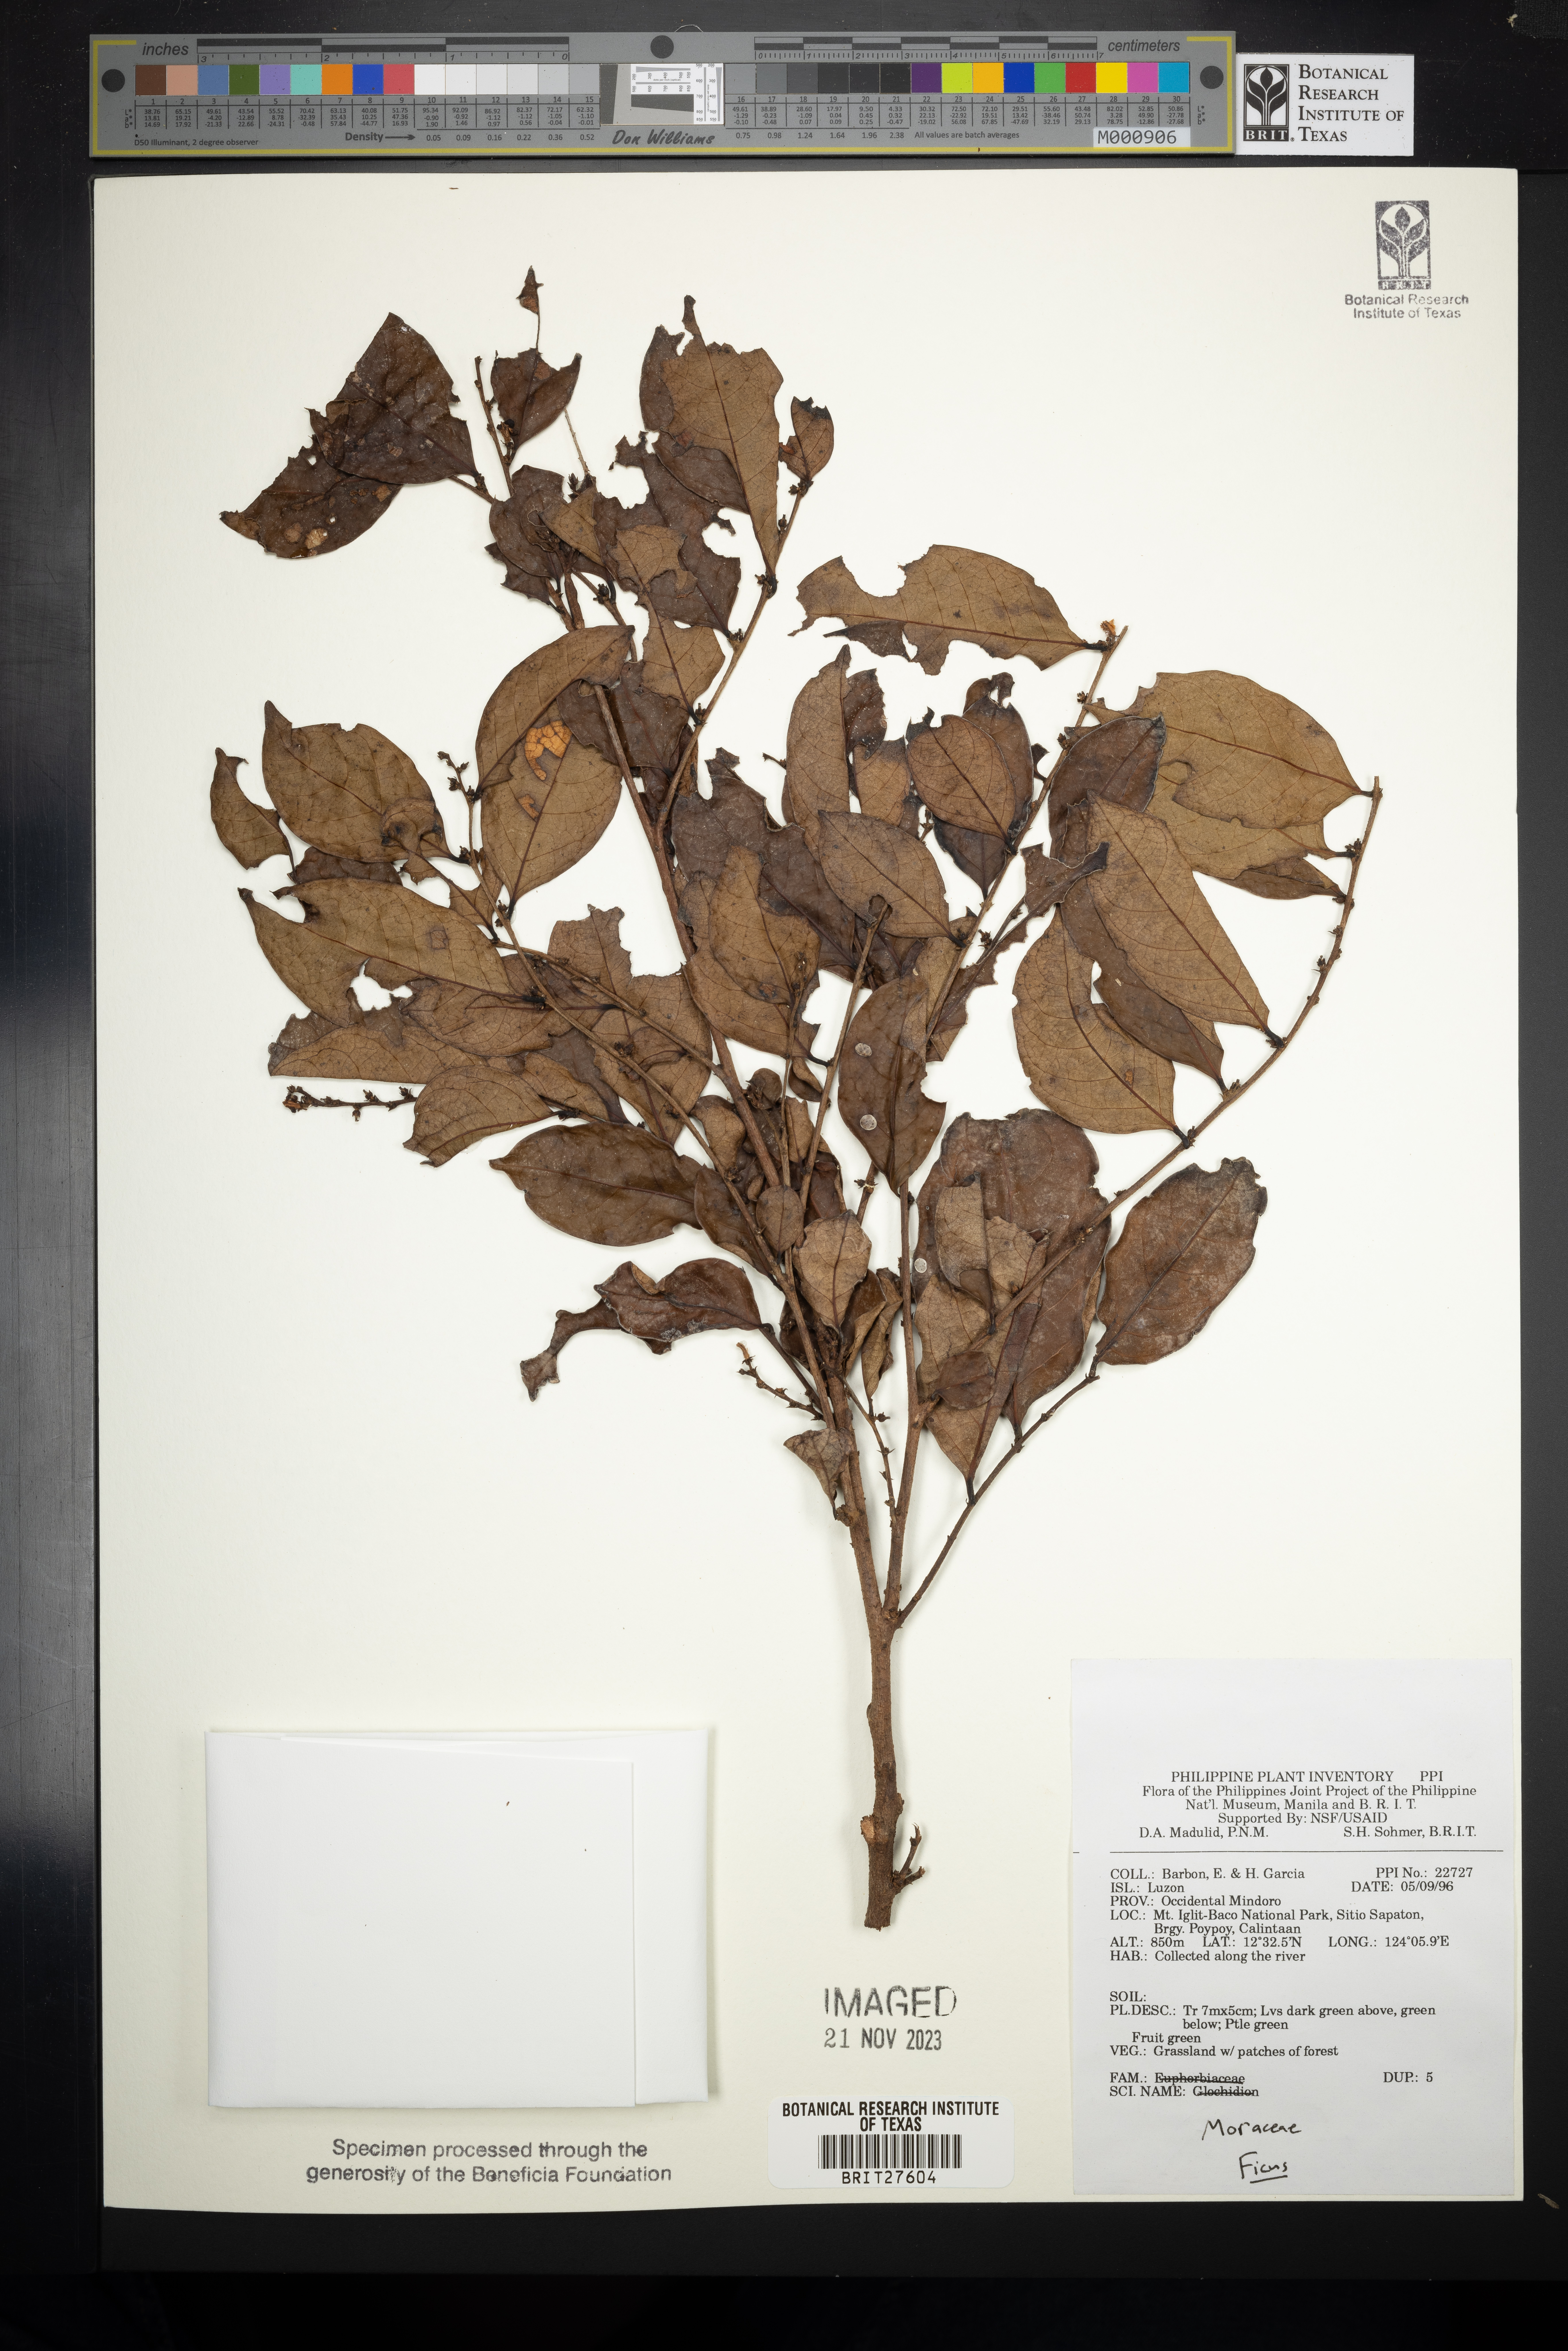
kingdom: Plantae
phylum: Tracheophyta
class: Magnoliopsida
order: Malpighiales
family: Phyllanthaceae
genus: Glochidion
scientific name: Glochidion
